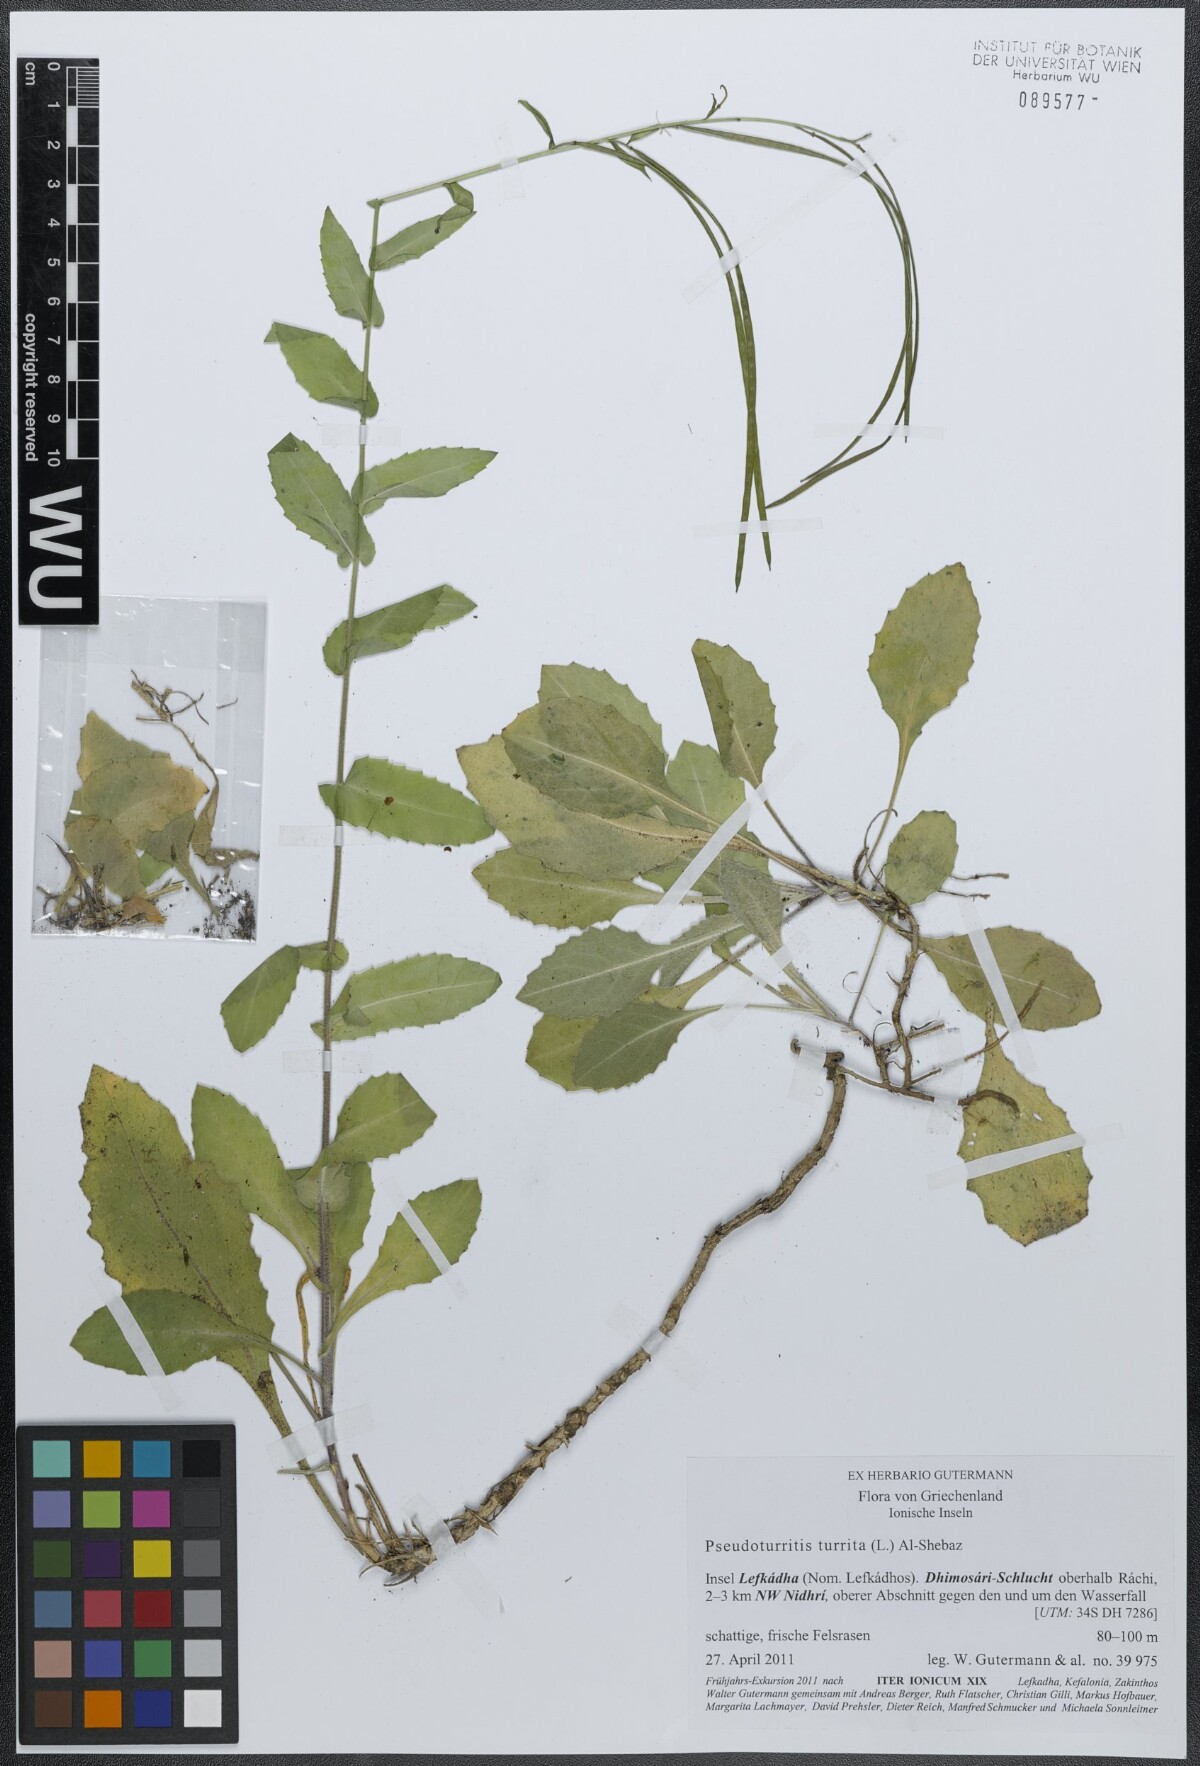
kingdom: Plantae
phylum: Tracheophyta
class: Magnoliopsida
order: Brassicales
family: Brassicaceae
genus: Pseudoturritis
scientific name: Pseudoturritis turrita
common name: Tower cress
